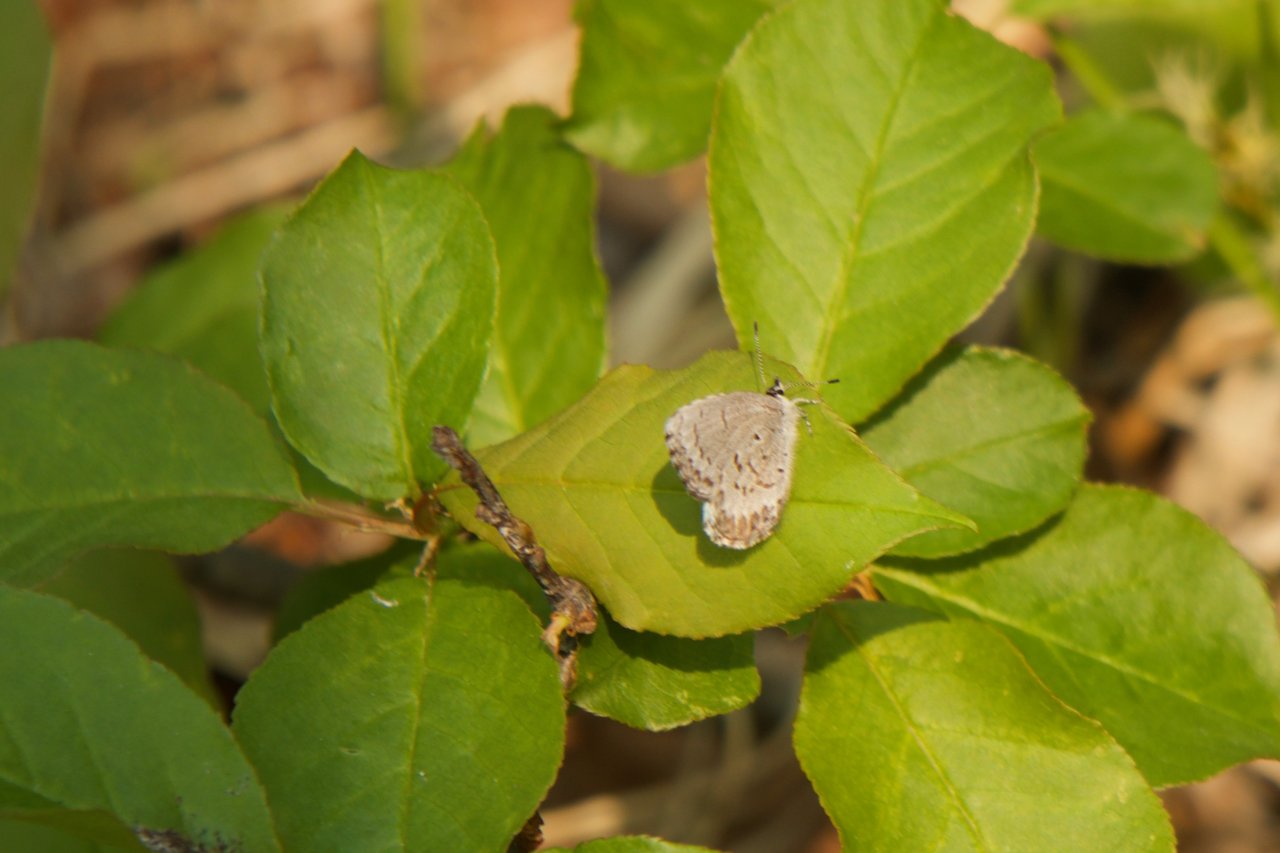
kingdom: Animalia
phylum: Arthropoda
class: Insecta
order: Lepidoptera
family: Lycaenidae
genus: Celastrina
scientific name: Celastrina lucia
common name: Northern Spring Azure
